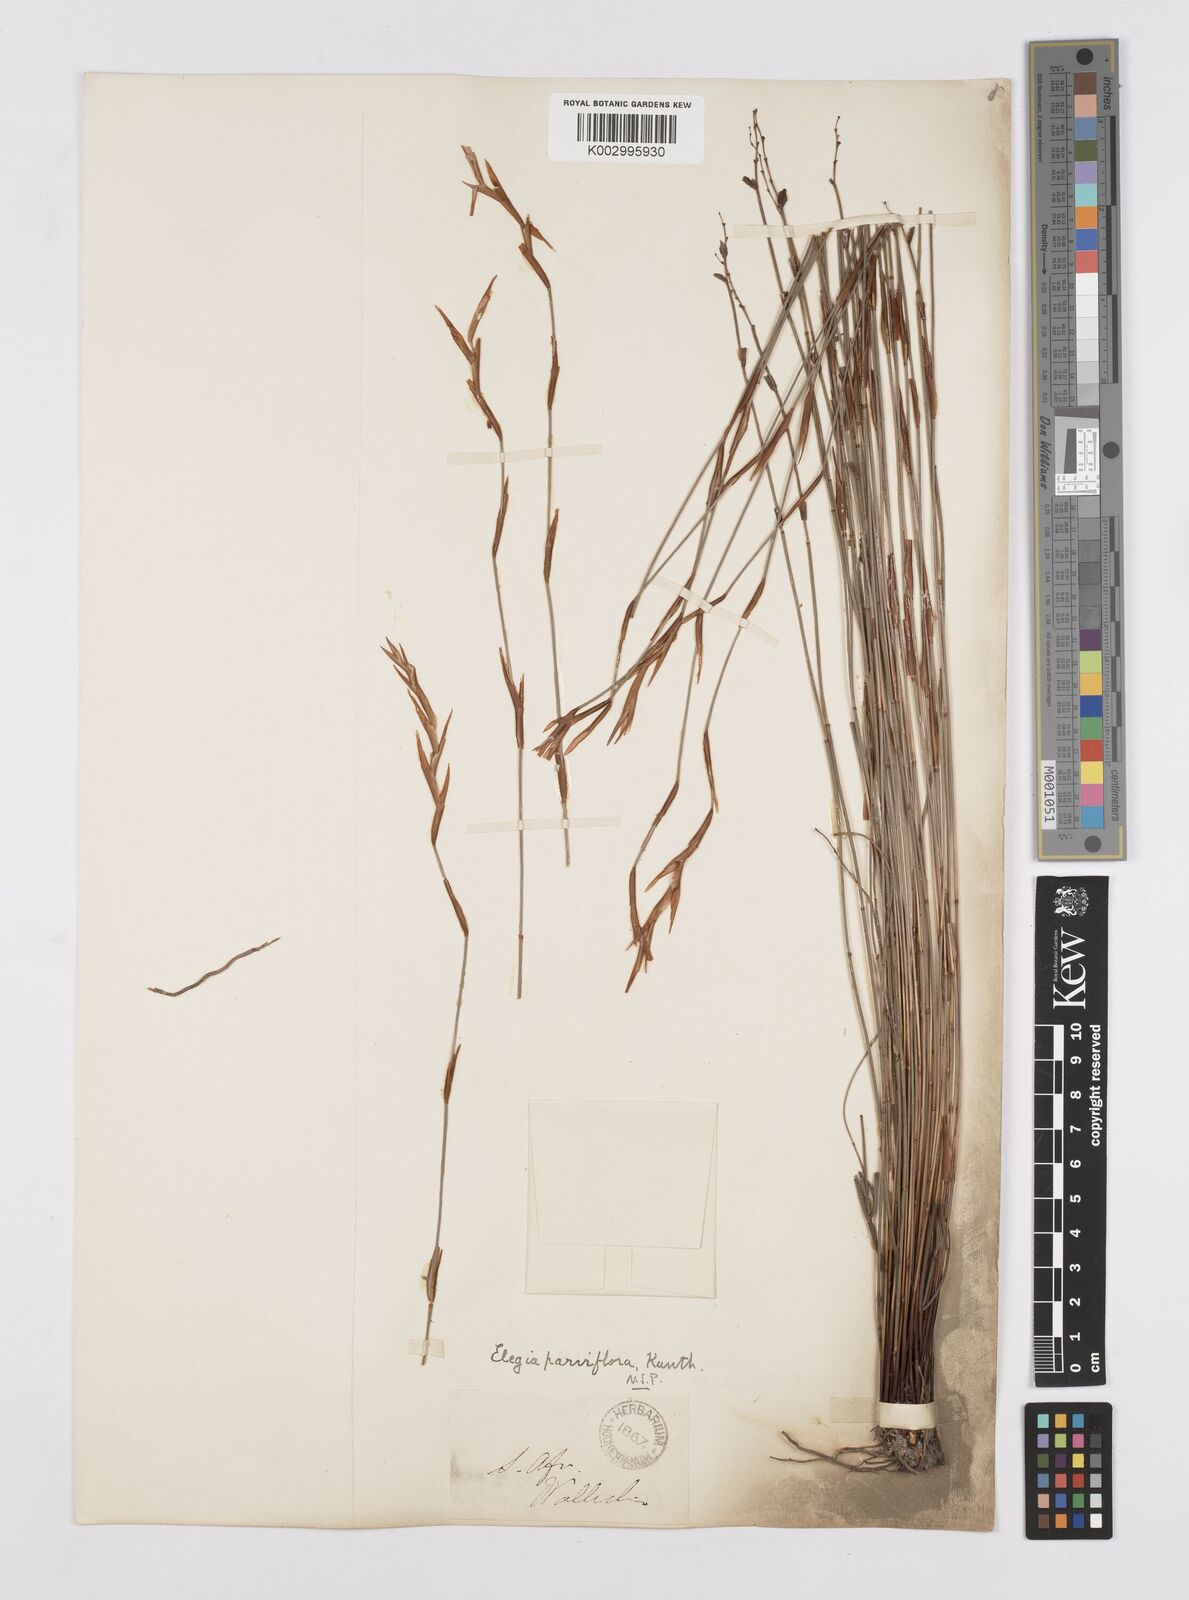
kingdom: Plantae
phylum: Tracheophyta
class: Liliopsida
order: Poales
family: Restionaceae
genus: Cannomois
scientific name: Cannomois parviflora
